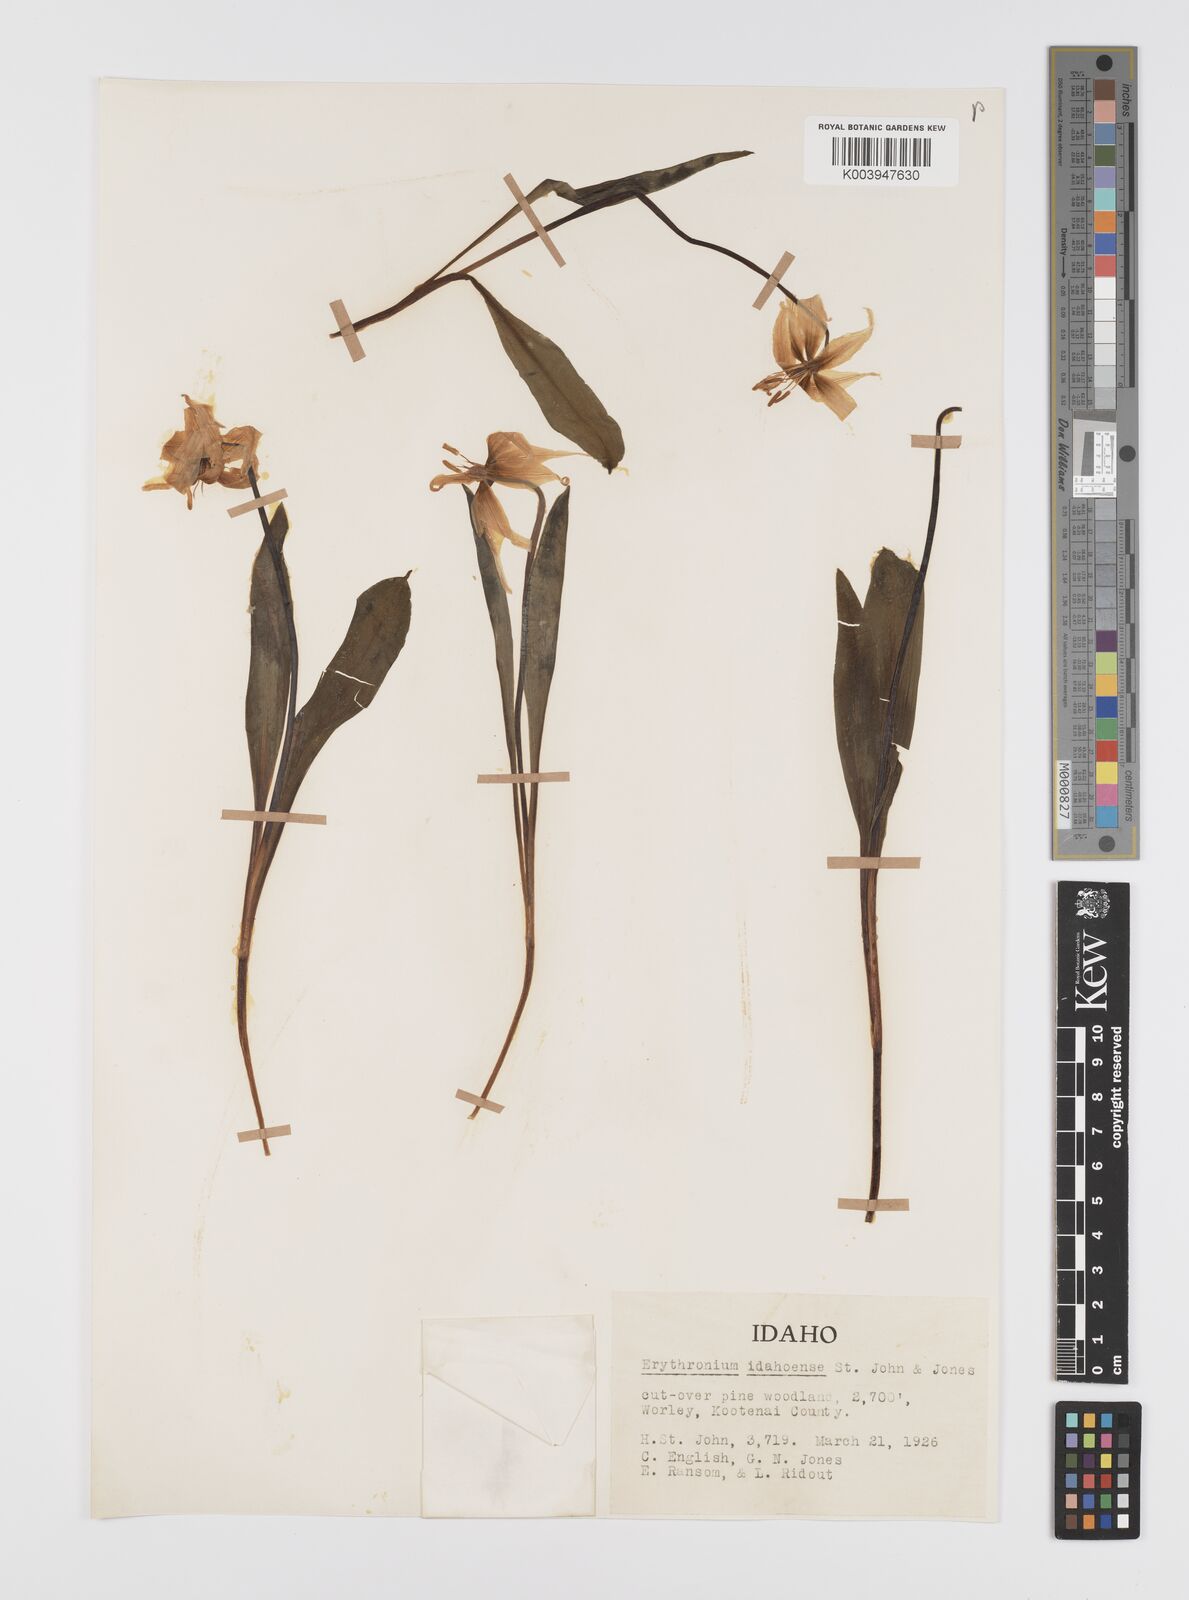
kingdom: Plantae
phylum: Tracheophyta
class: Liliopsida
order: Liliales
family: Liliaceae
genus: Erythronium
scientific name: Erythronium idahoense
